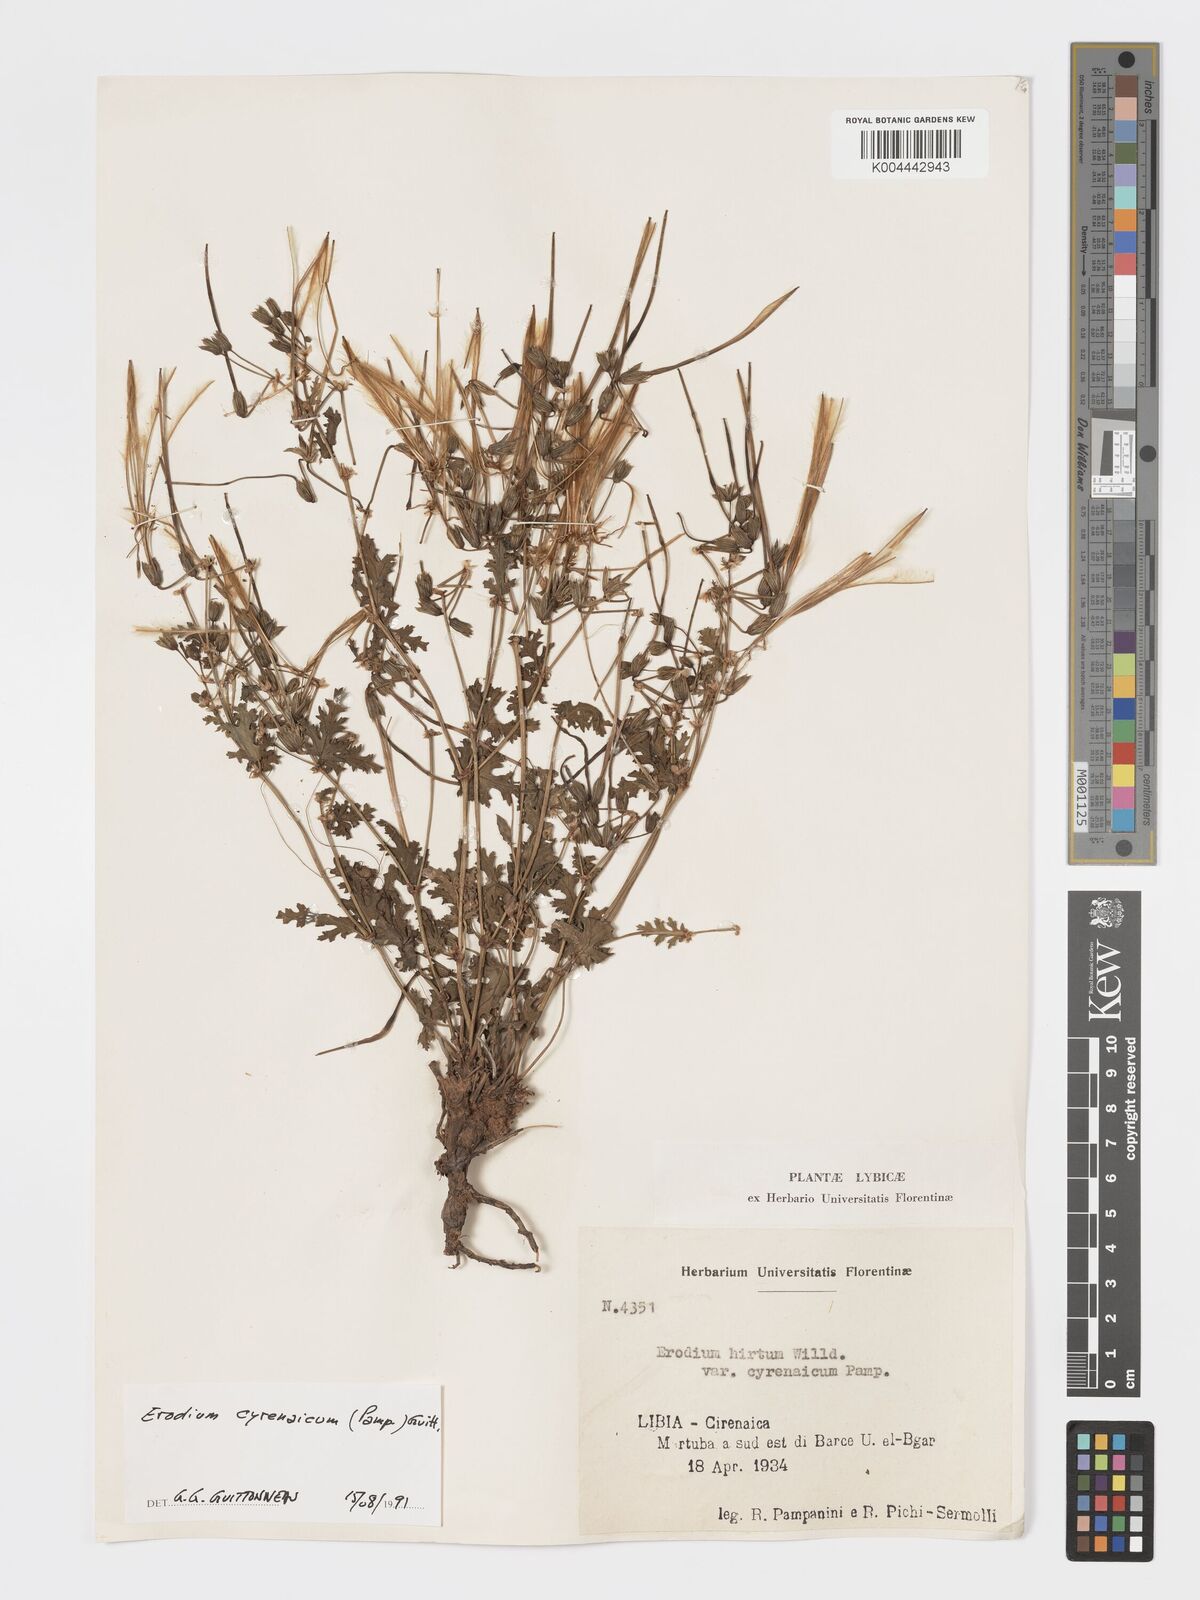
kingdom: Plantae
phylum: Tracheophyta
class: Magnoliopsida
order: Geraniales
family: Geraniaceae
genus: Erodium
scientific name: Erodium cyrenaicum
